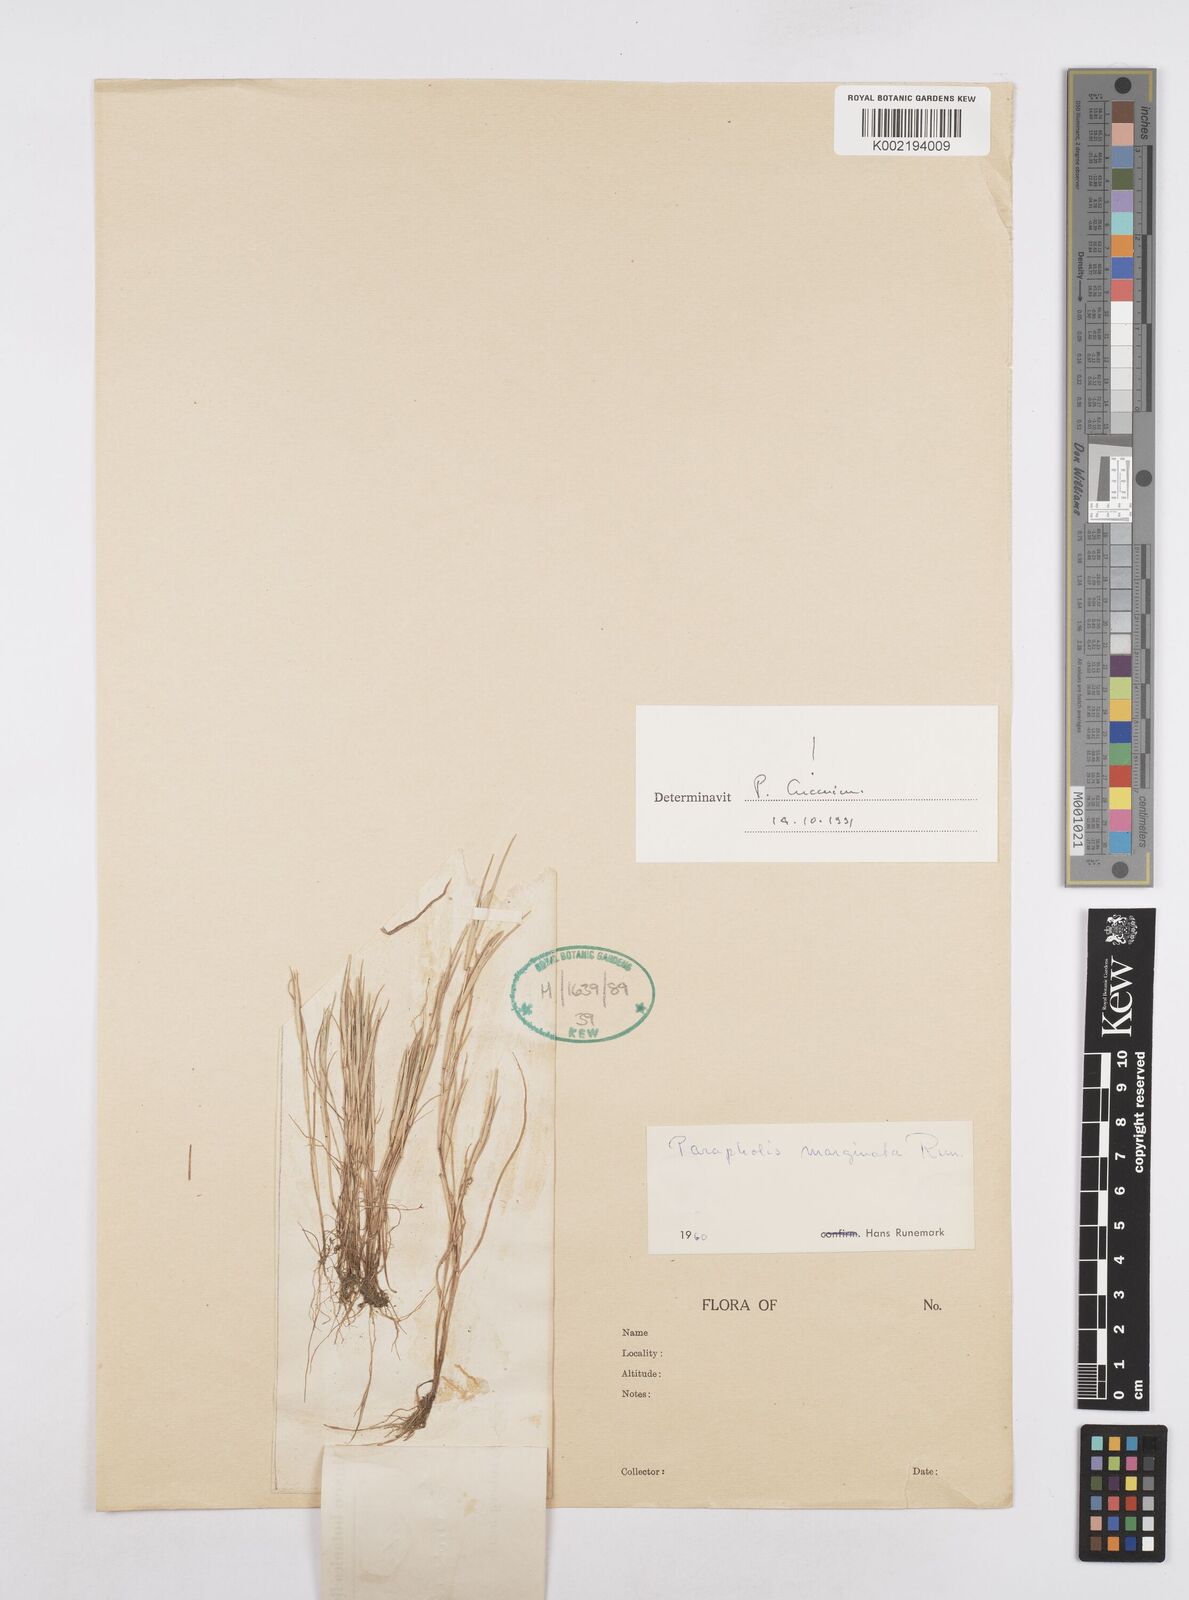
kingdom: Plantae
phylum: Tracheophyta
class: Liliopsida
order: Poales
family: Poaceae
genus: Parapholis
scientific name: Parapholis marginata
